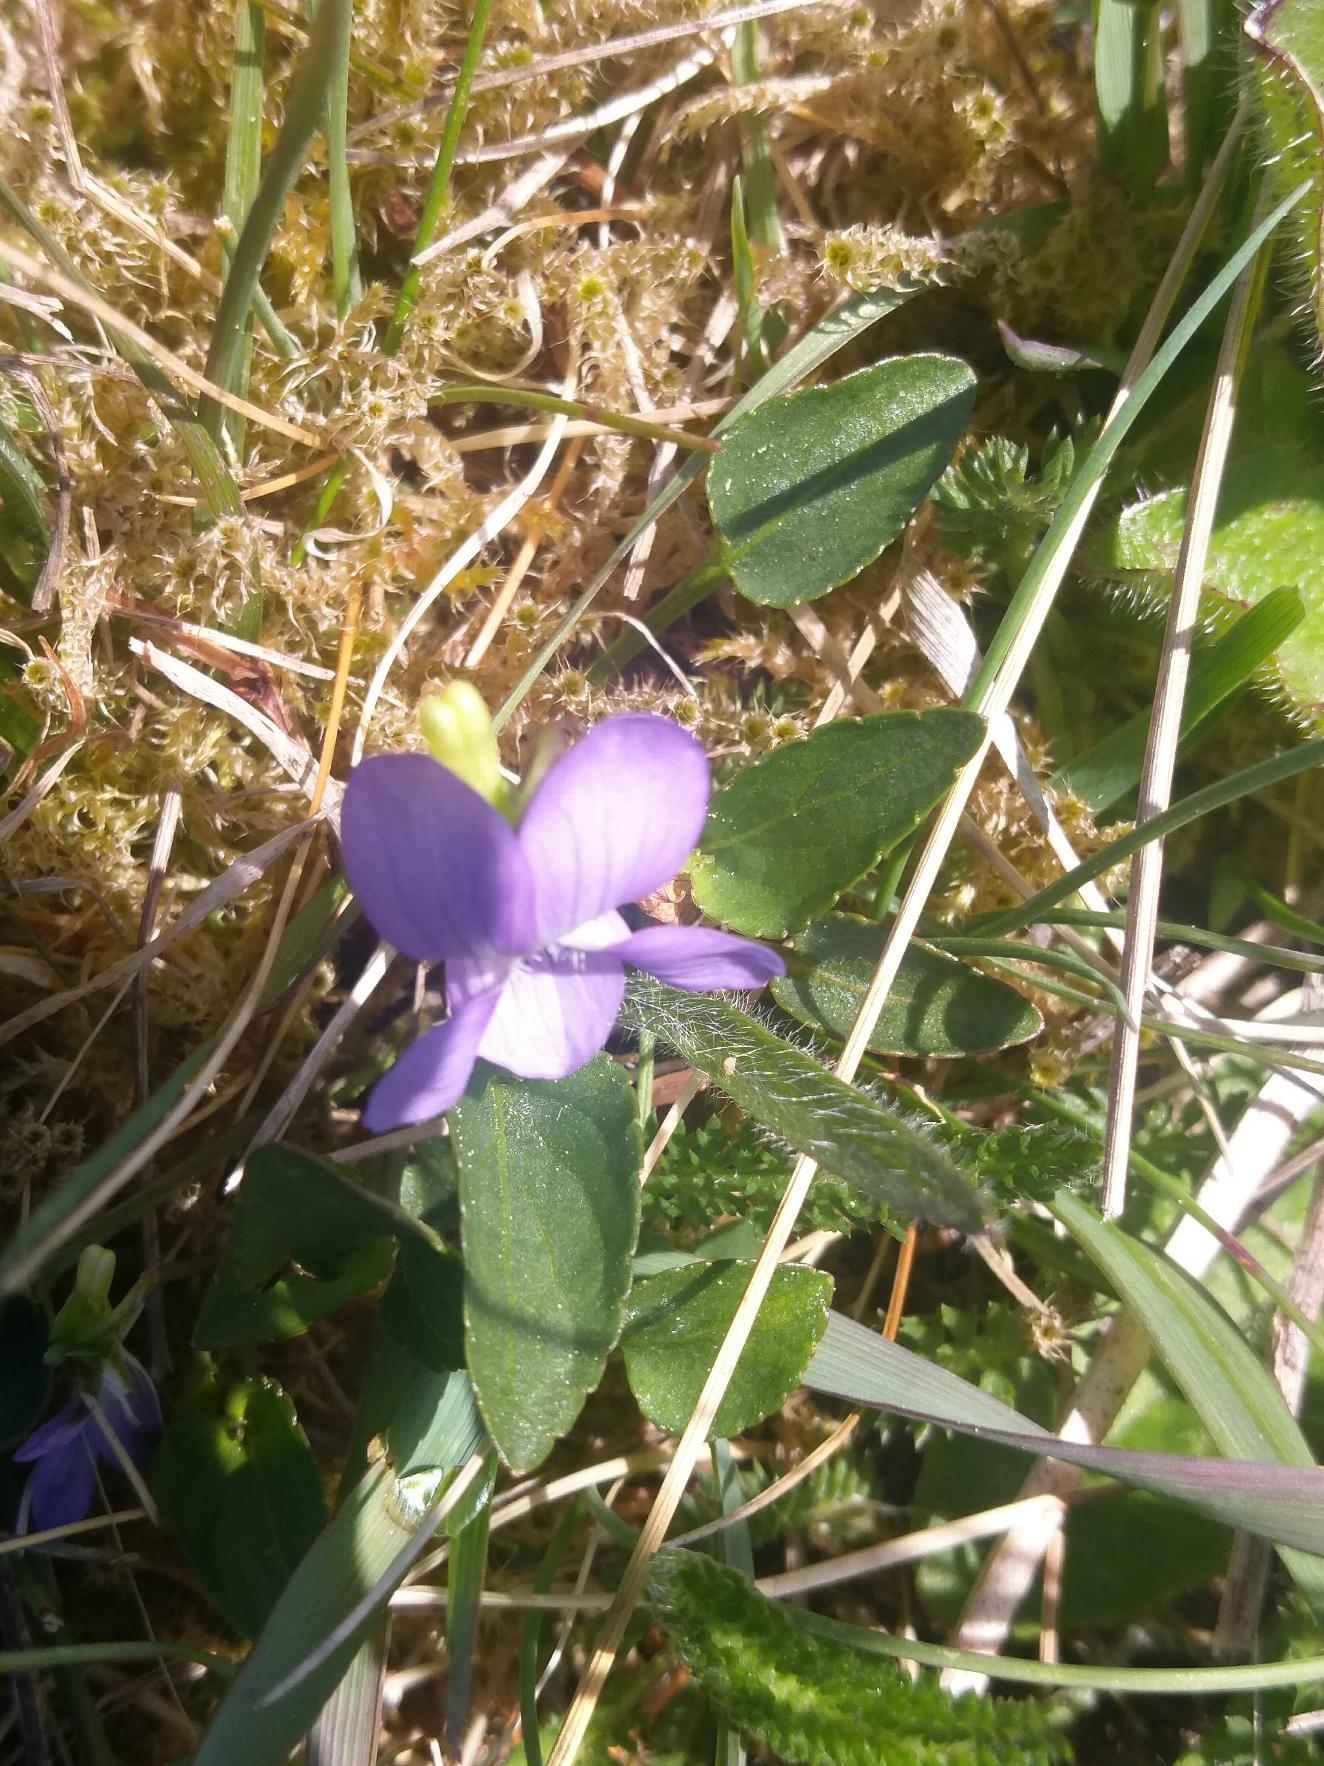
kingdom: Plantae
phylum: Tracheophyta
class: Magnoliopsida
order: Malpighiales
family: Violaceae
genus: Viola
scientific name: Viola canina
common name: Hunde-viol
